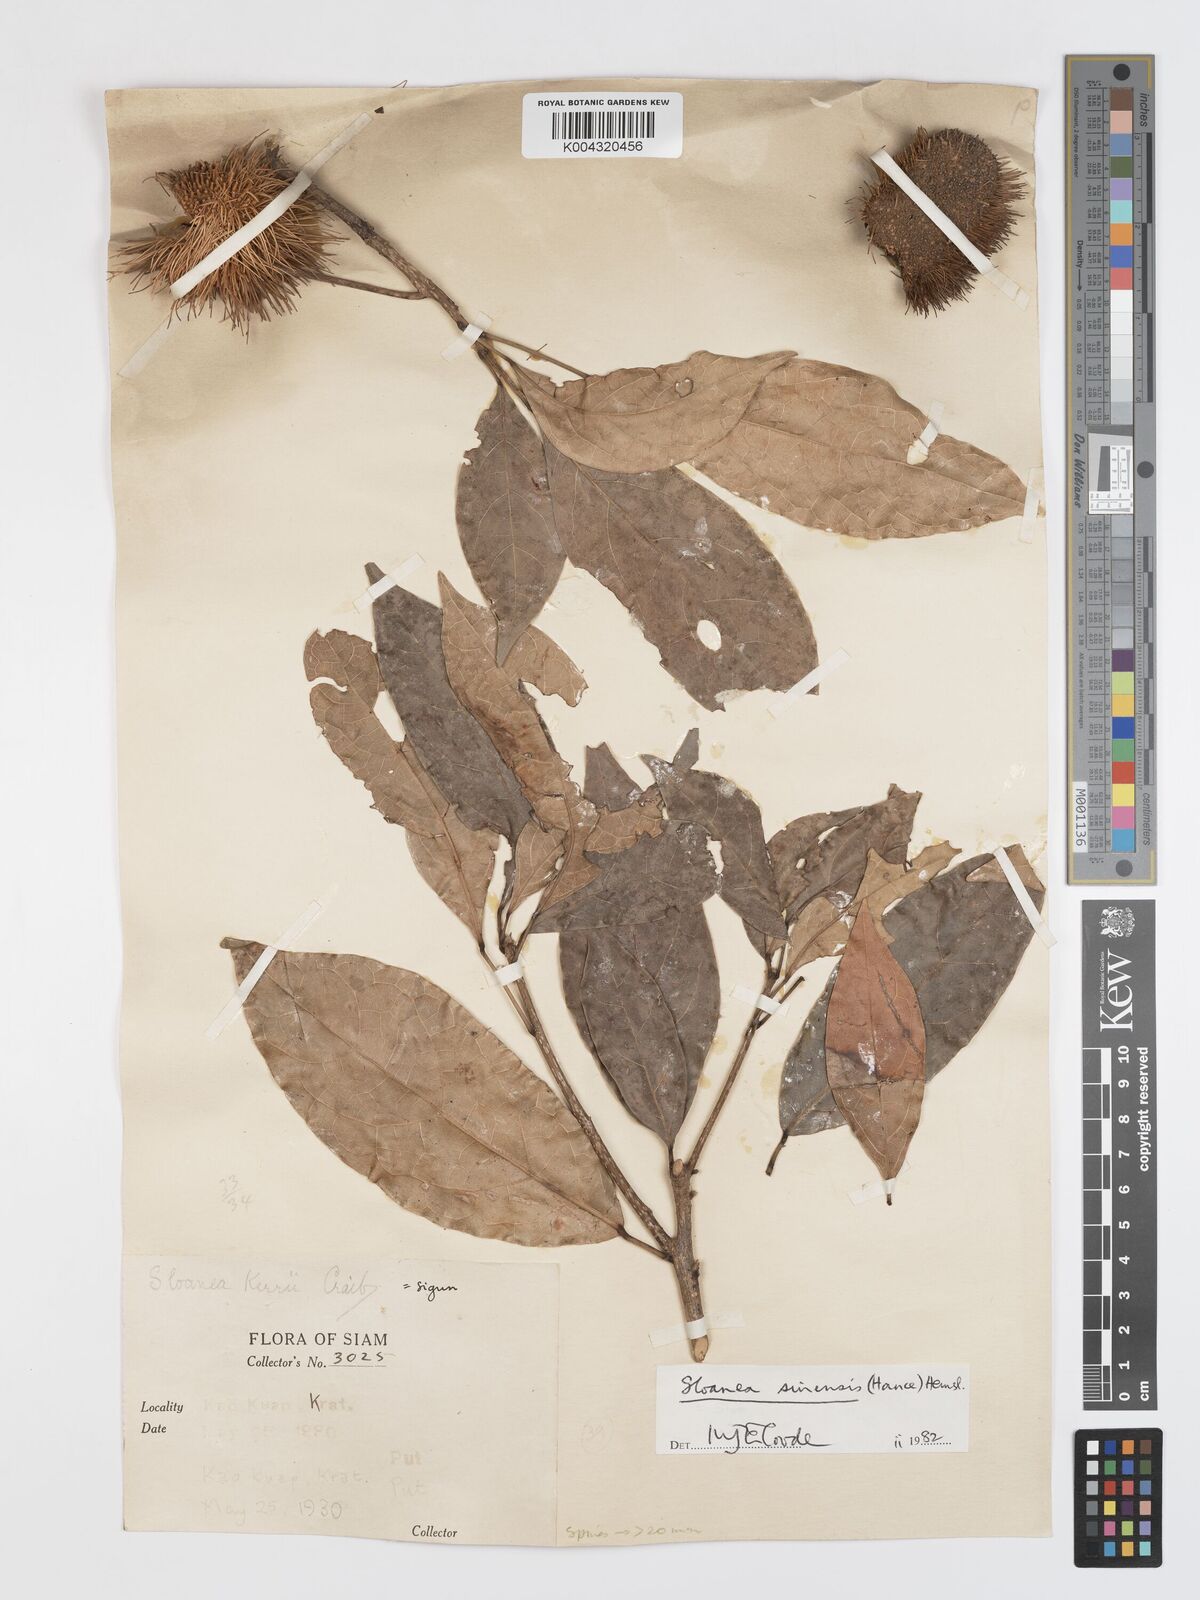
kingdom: Plantae
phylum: Tracheophyta
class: Magnoliopsida
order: Oxalidales
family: Elaeocarpaceae
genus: Sloanea
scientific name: Sloanea sinensis
